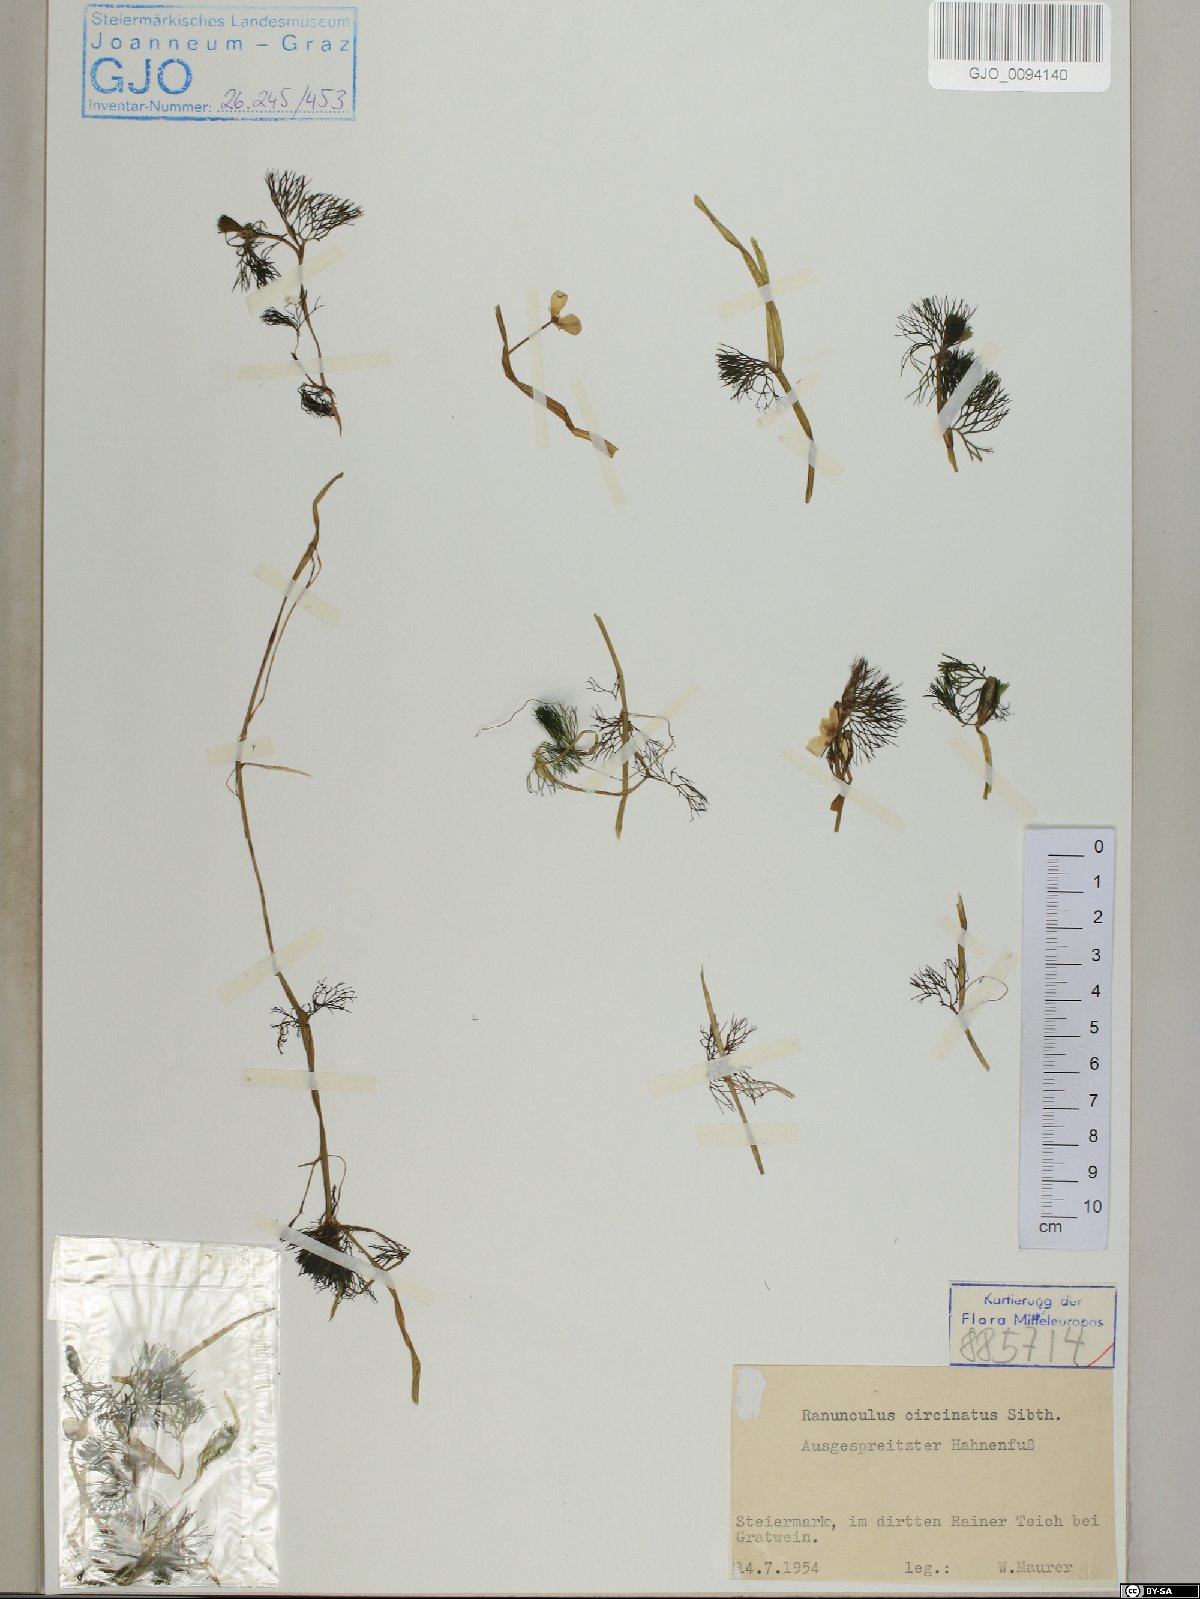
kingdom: Plantae
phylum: Tracheophyta
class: Magnoliopsida
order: Ranunculales
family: Ranunculaceae
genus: Ranunculus
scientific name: Ranunculus circinatus
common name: Fan-leaved water-crowfoot
